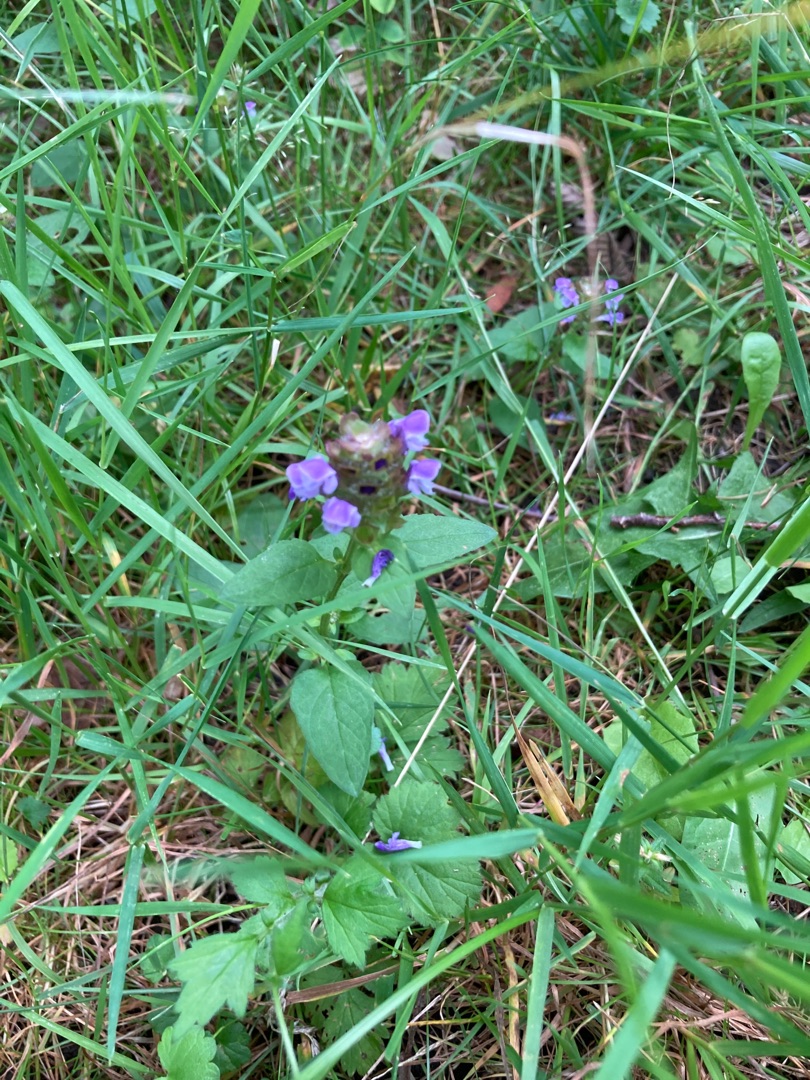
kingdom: Plantae
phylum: Tracheophyta
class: Magnoliopsida
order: Lamiales
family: Lamiaceae
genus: Prunella
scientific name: Prunella vulgaris
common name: Almindelig brunelle
